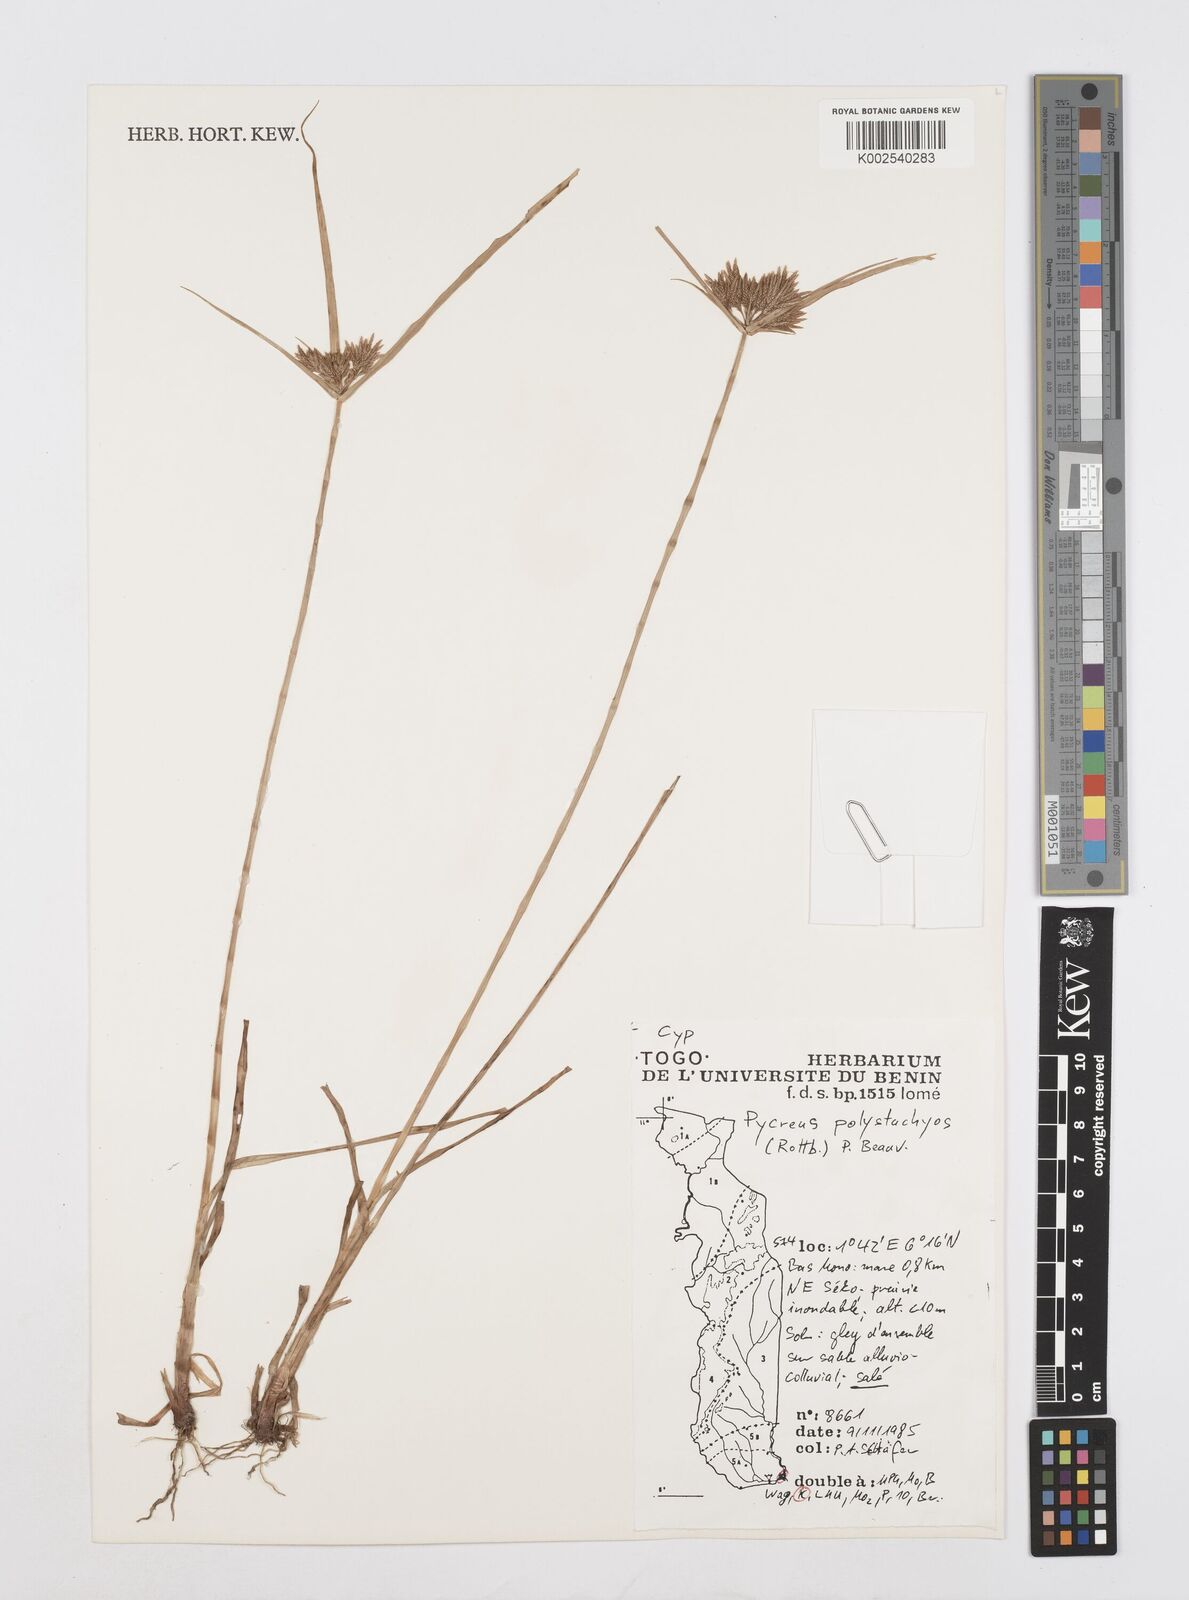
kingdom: Plantae
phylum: Tracheophyta
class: Liliopsida
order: Poales
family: Cyperaceae
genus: Cyperus
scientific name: Cyperus polystachyos
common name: Bunchy flat sedge
